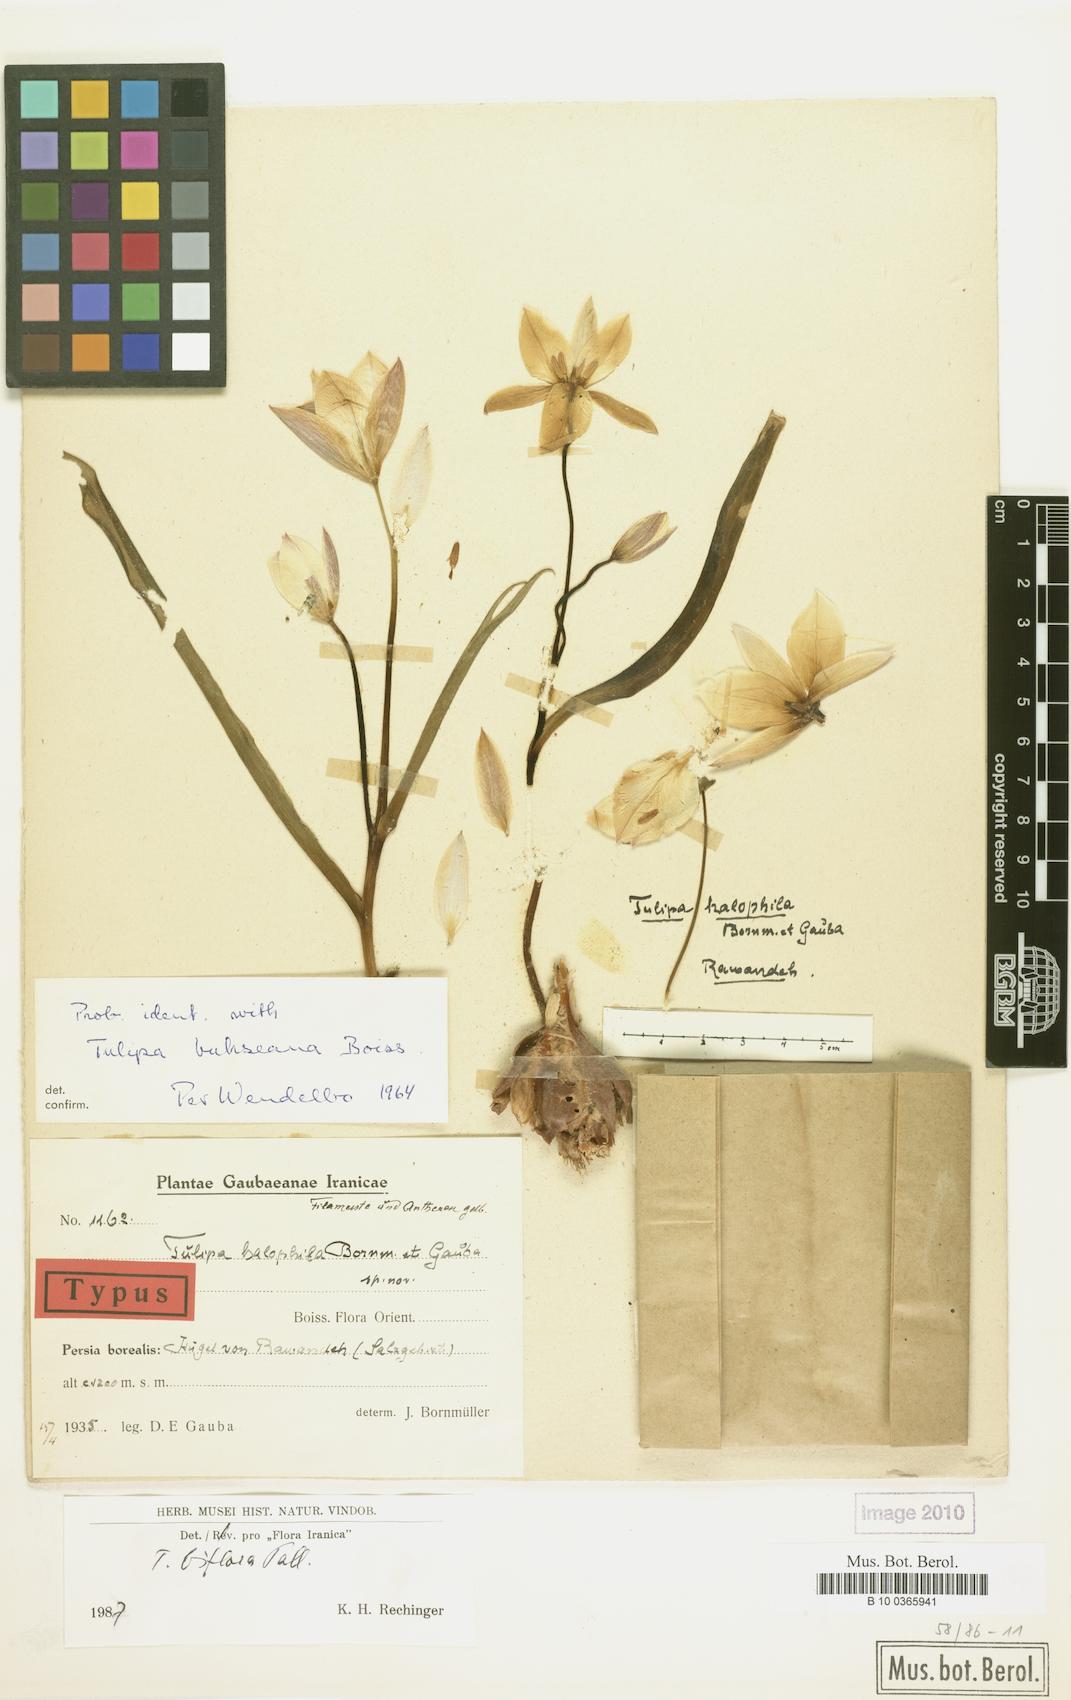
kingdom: Plantae
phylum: Tracheophyta
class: Liliopsida
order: Liliales
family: Liliaceae
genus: Tulipa
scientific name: Tulipa biflora
